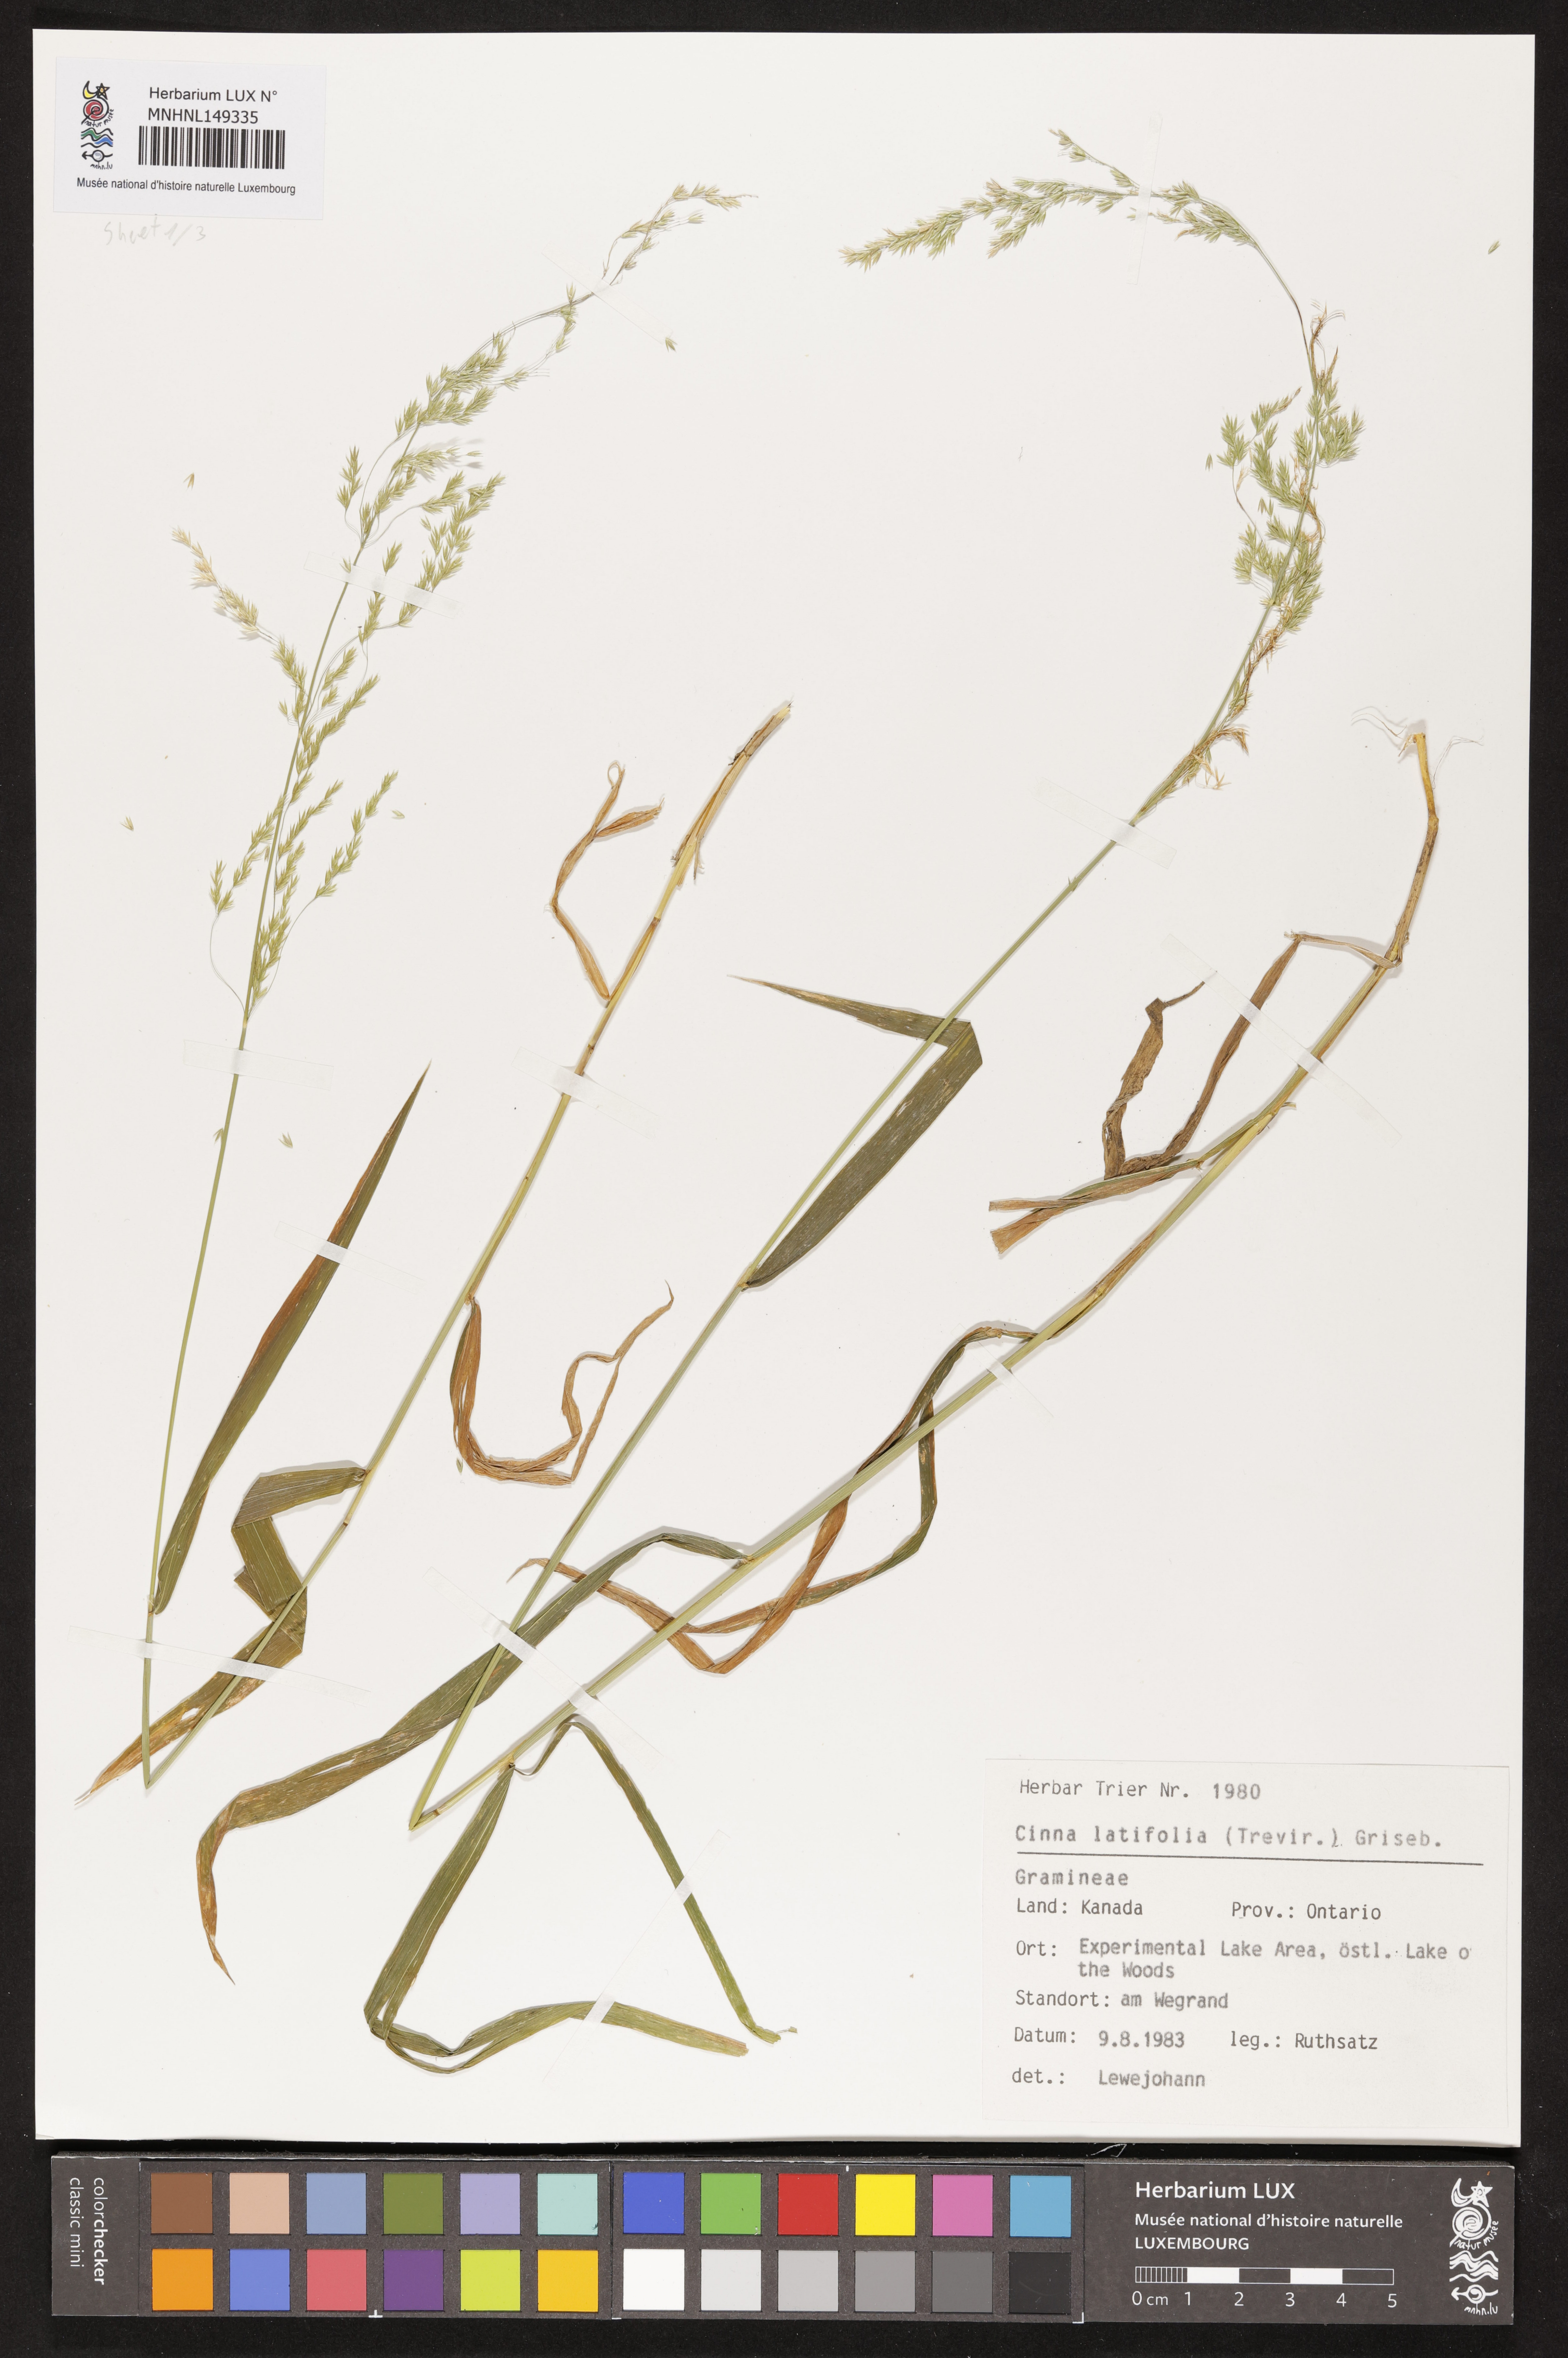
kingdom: Plantae
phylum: Tracheophyta
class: Liliopsida
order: Poales
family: Poaceae
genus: Cinna
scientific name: Cinna latifolia
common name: Drooping woodreed
